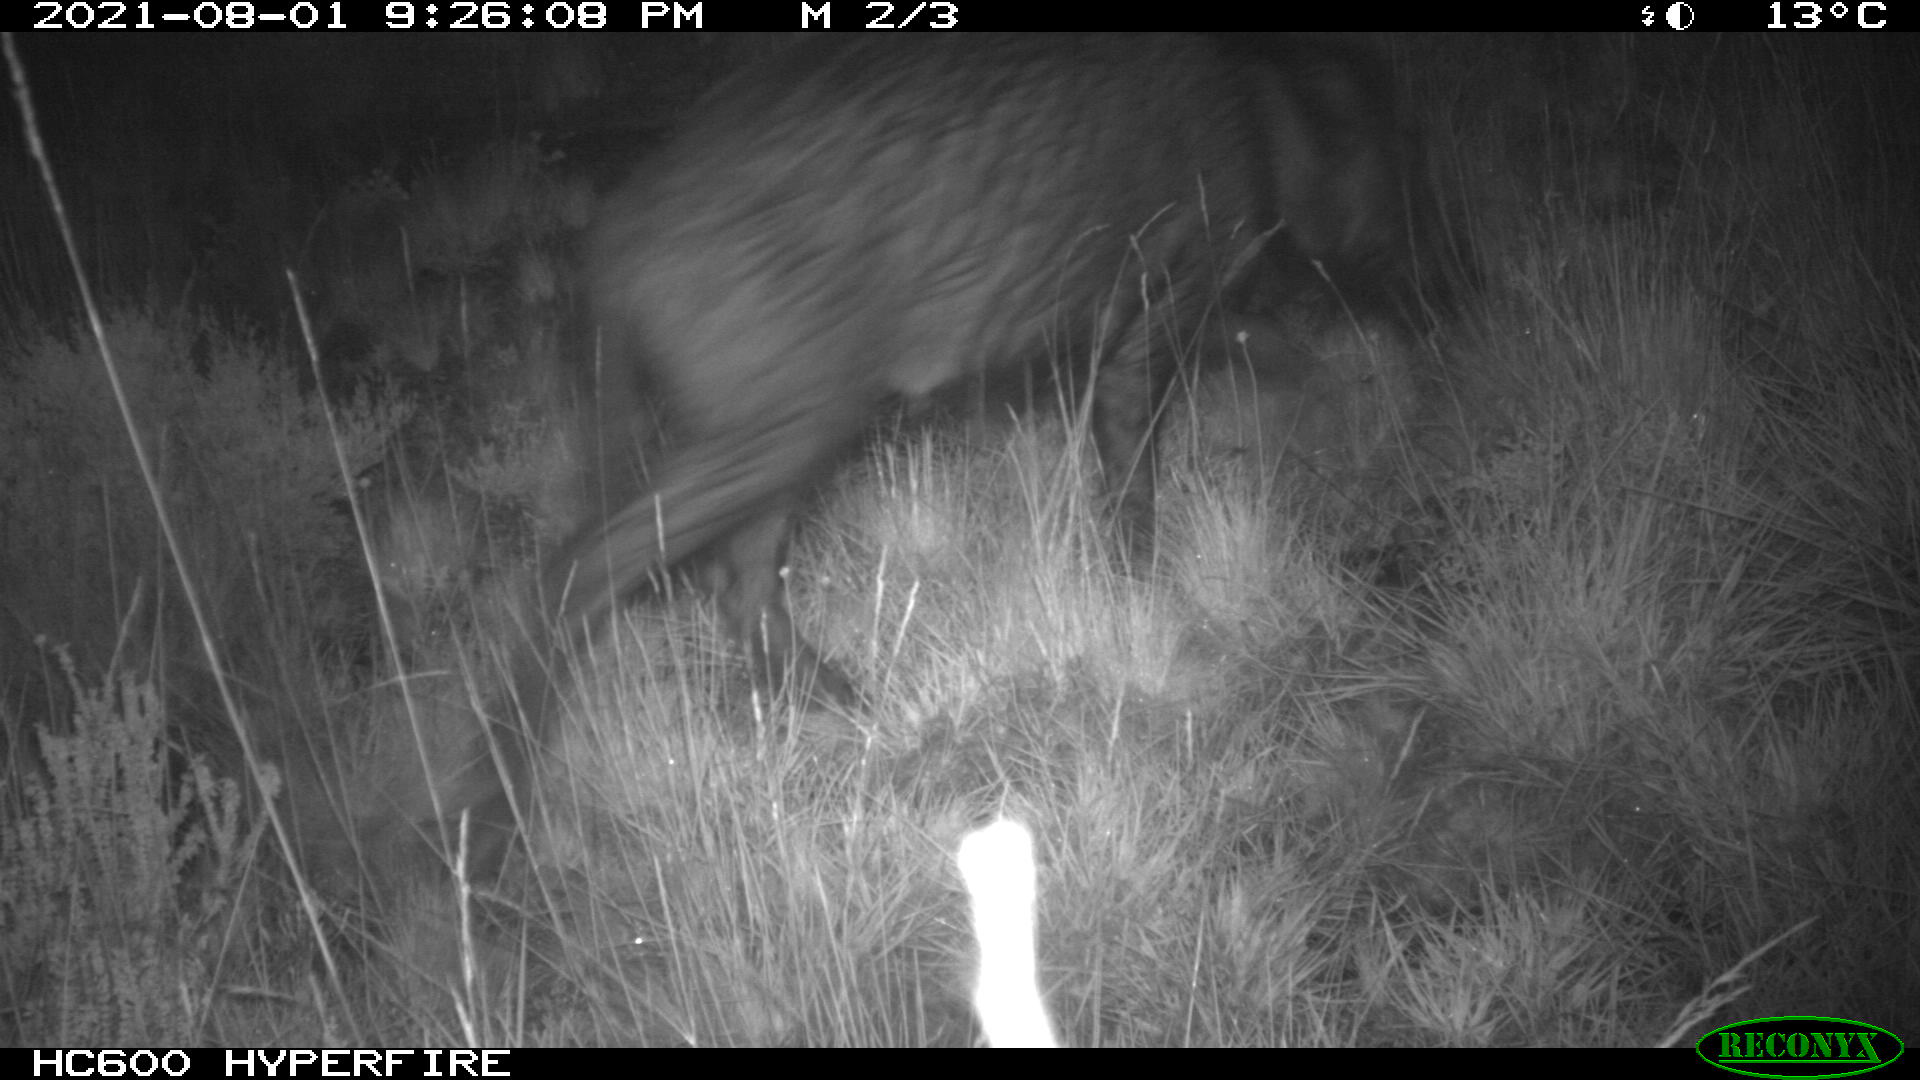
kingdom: Animalia
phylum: Chordata
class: Mammalia
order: Artiodactyla
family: Suidae
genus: Sus
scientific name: Sus scrofa
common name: Wild boar
